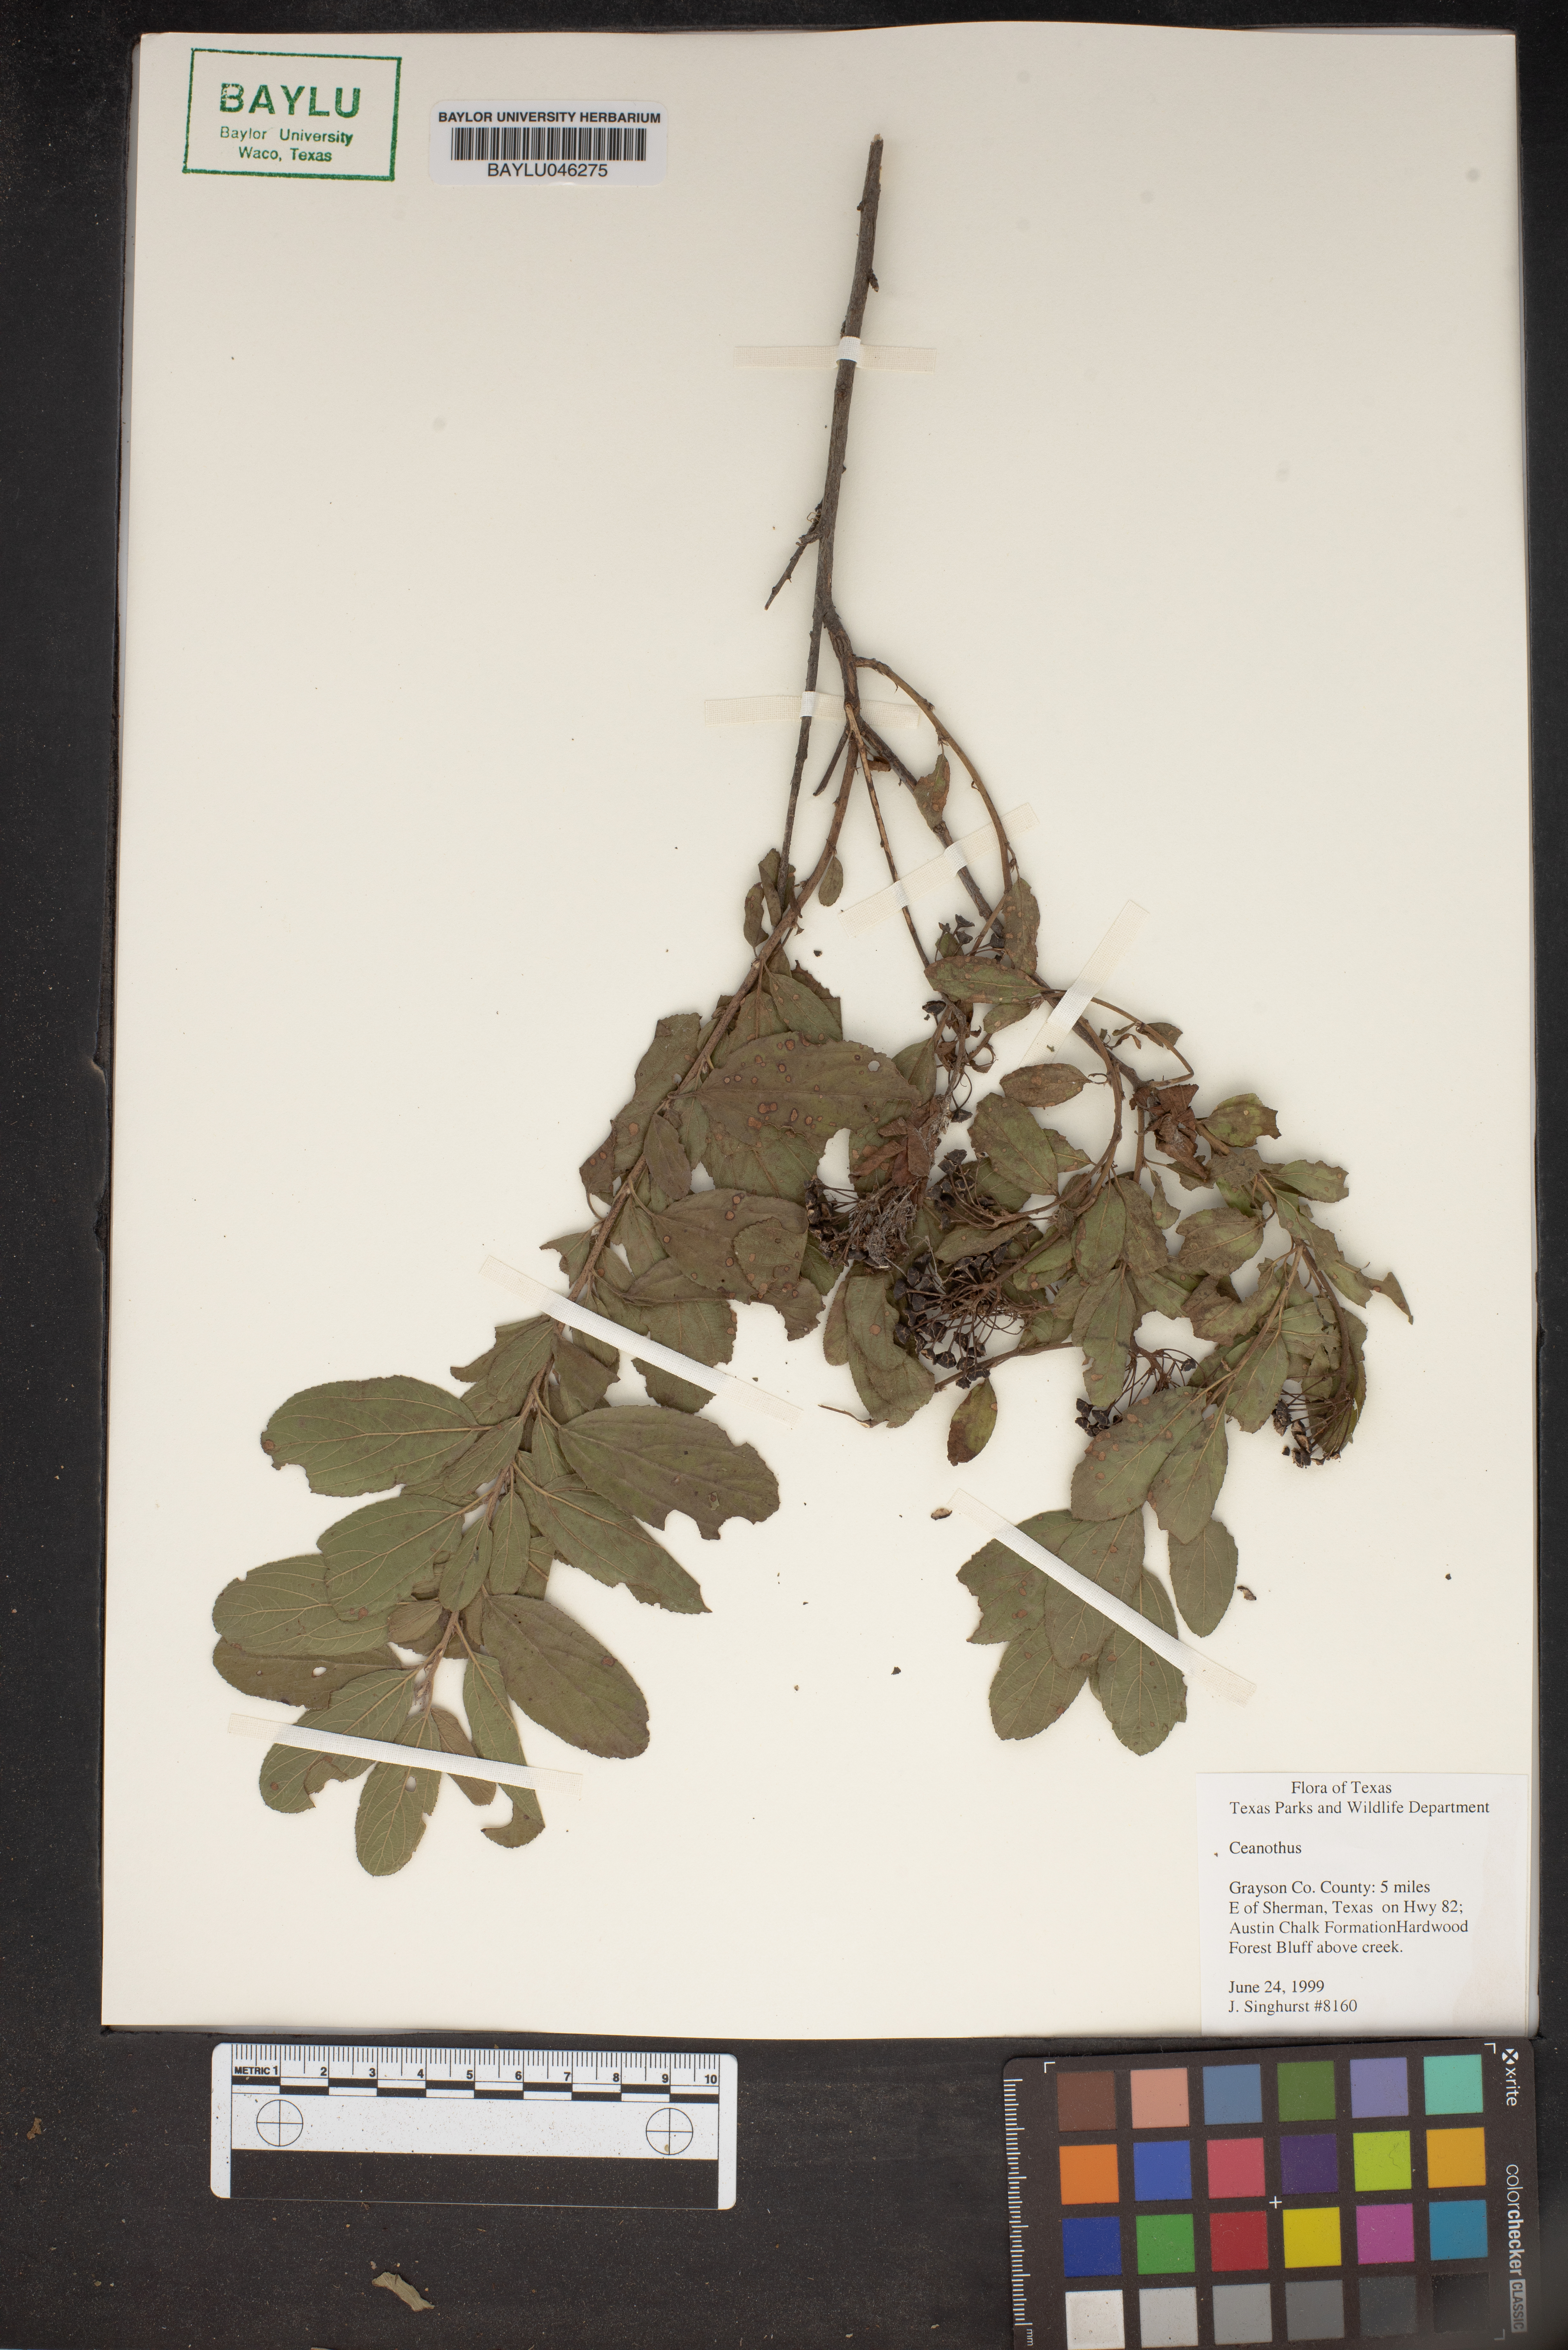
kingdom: Plantae
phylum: Tracheophyta
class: Magnoliopsida
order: Rosales
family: Rhamnaceae
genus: Ceanothus
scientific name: Ceanothus
